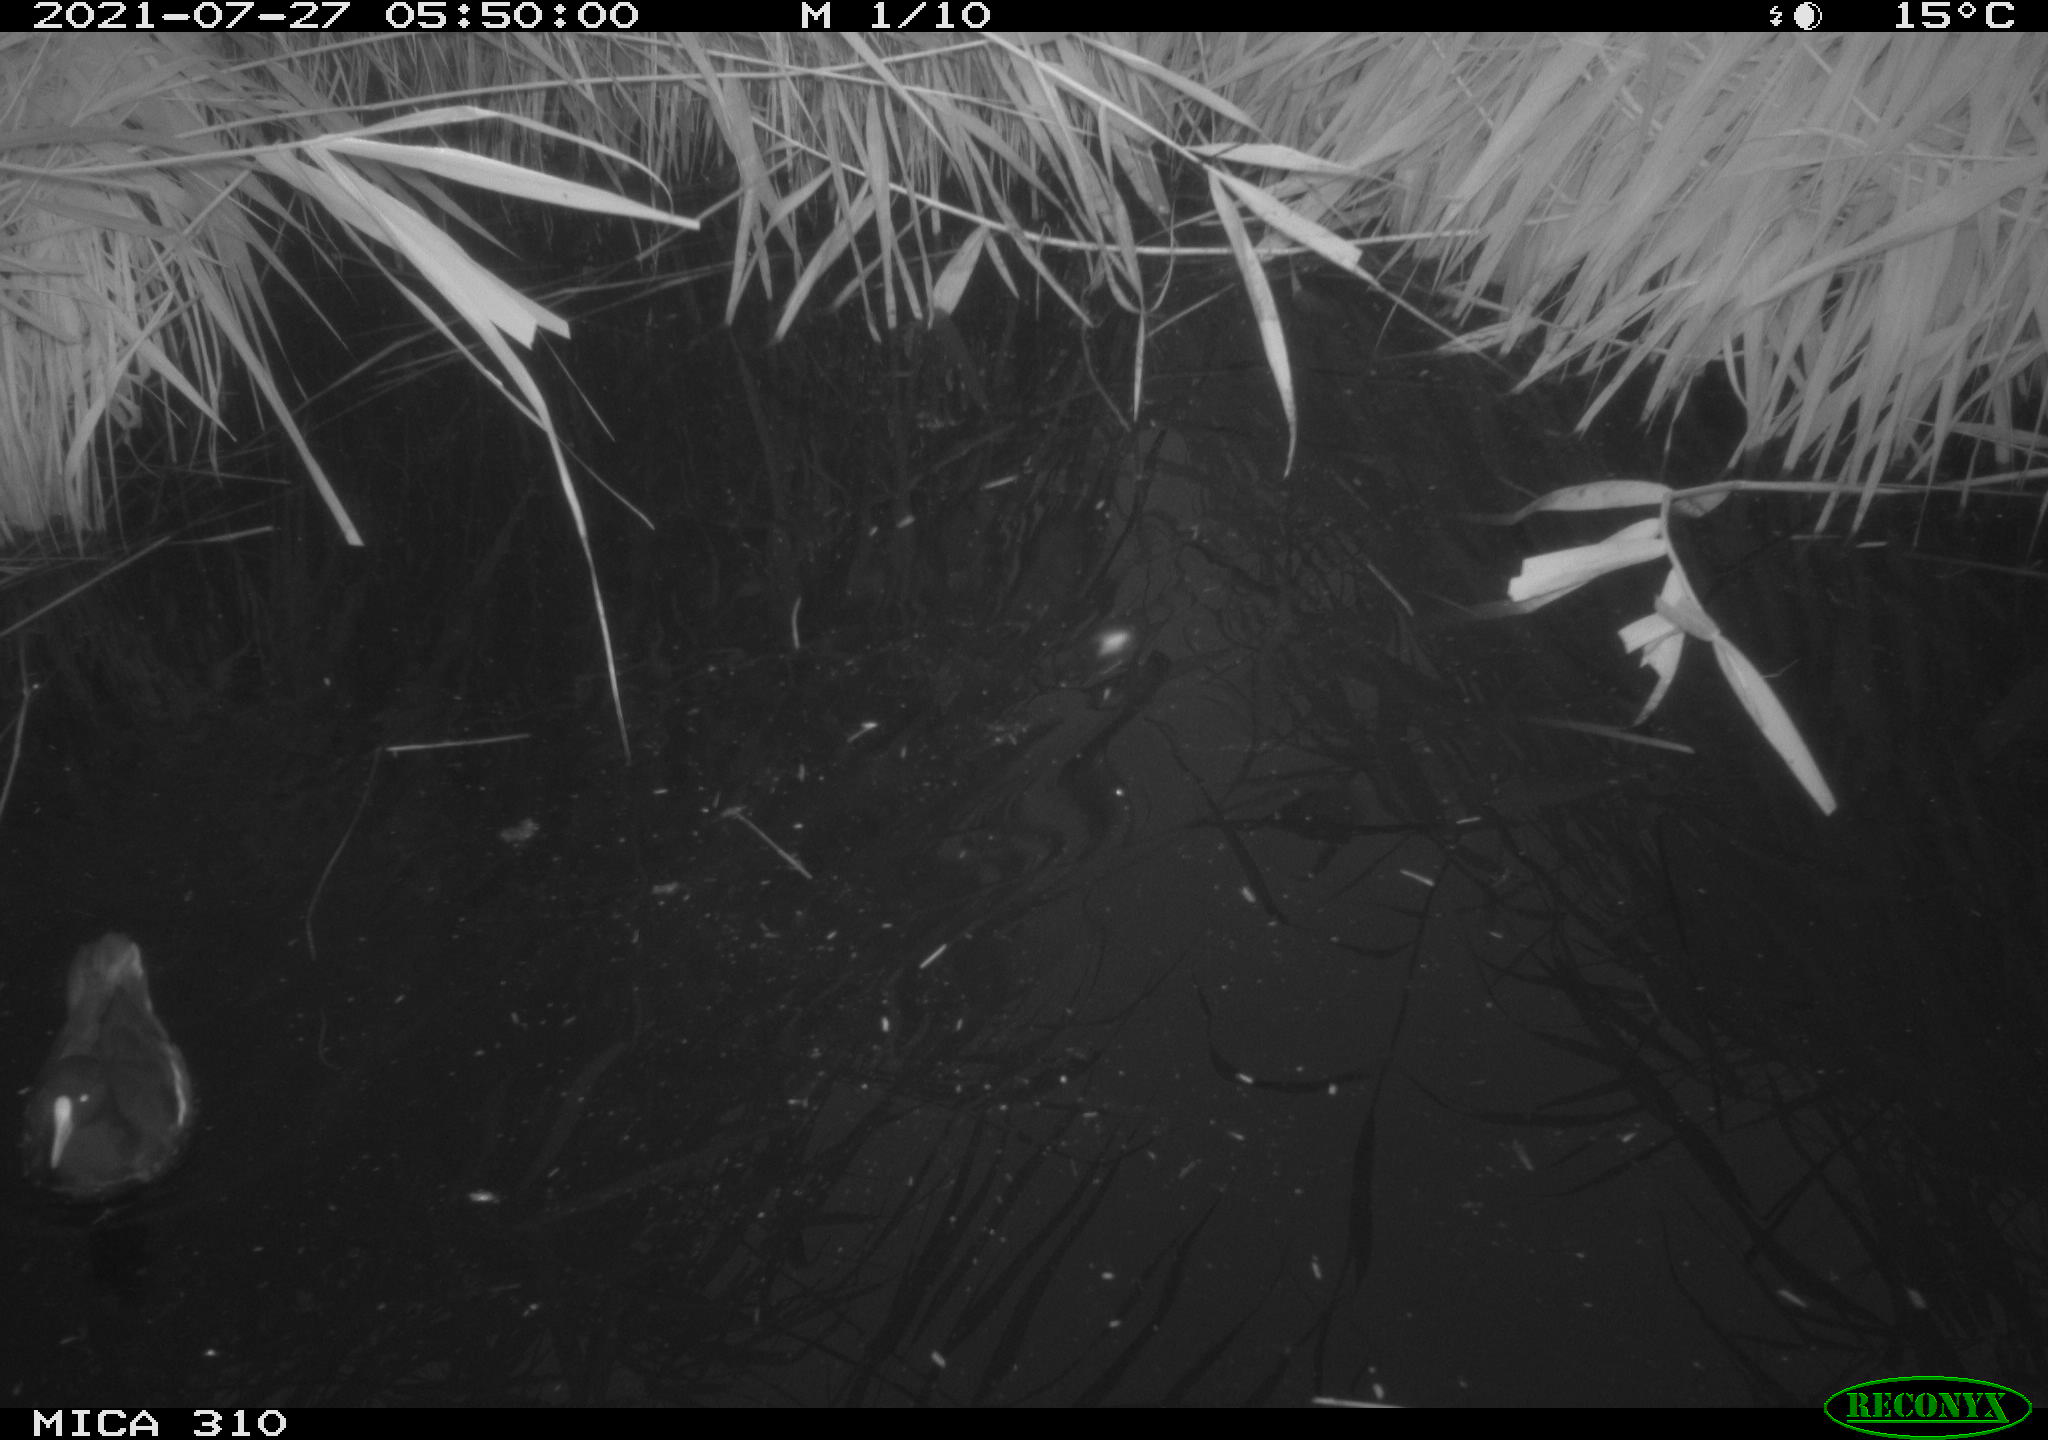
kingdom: Animalia
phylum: Chordata
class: Aves
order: Gruiformes
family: Rallidae
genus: Gallinula
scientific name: Gallinula chloropus
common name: Common moorhen
